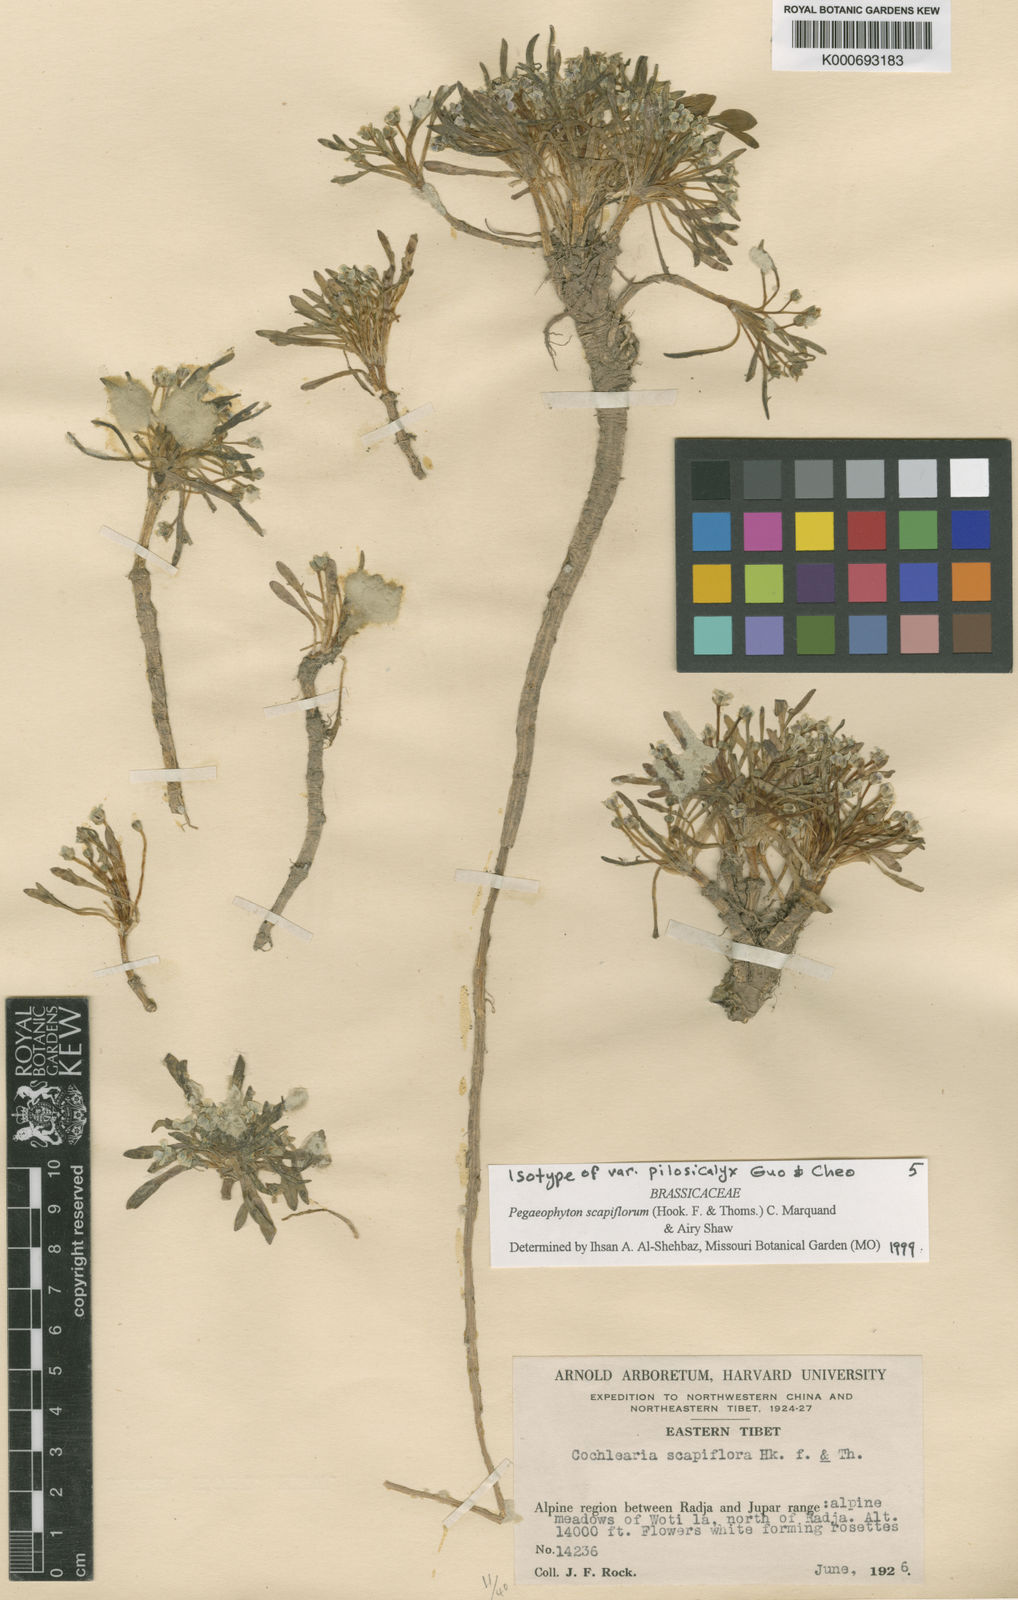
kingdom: Plantae
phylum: Tracheophyta
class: Magnoliopsida
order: Brassicales
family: Brassicaceae
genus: Eutrema
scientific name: Eutrema scapiflorum
